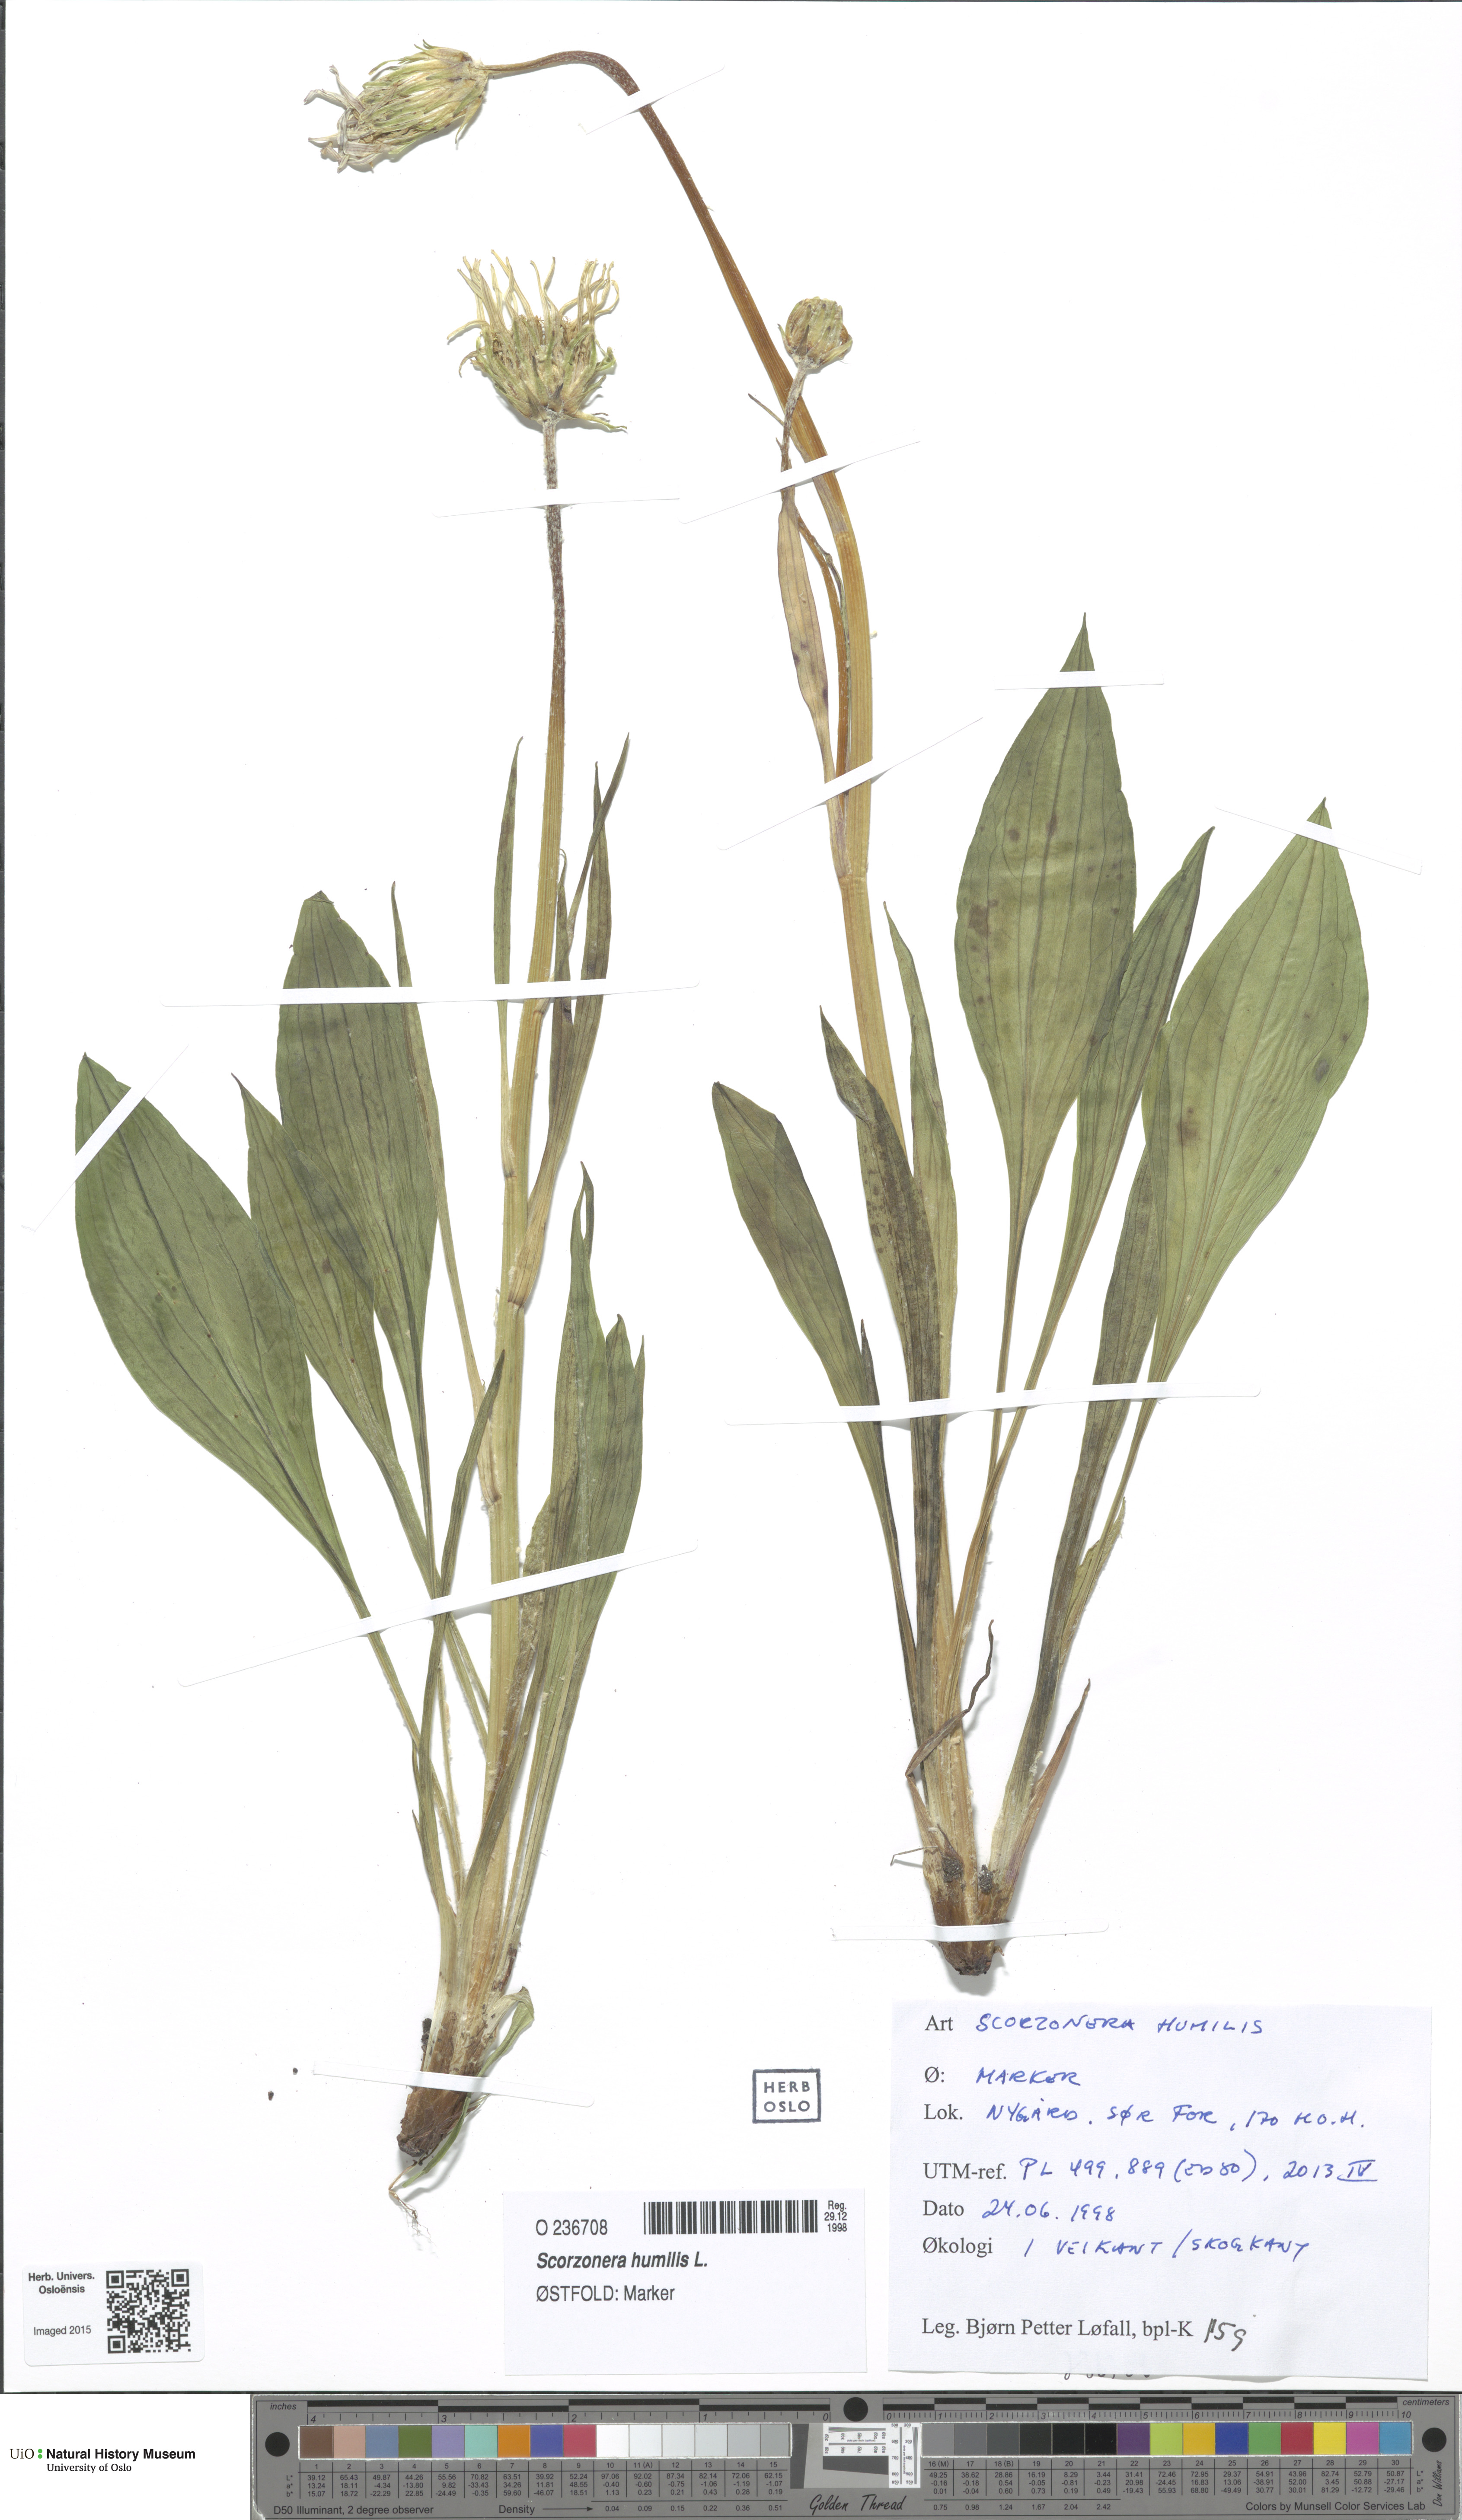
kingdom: Plantae
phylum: Tracheophyta
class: Magnoliopsida
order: Asterales
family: Asteraceae
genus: Scorzonera
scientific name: Scorzonera humilis
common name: Viper's-grass
